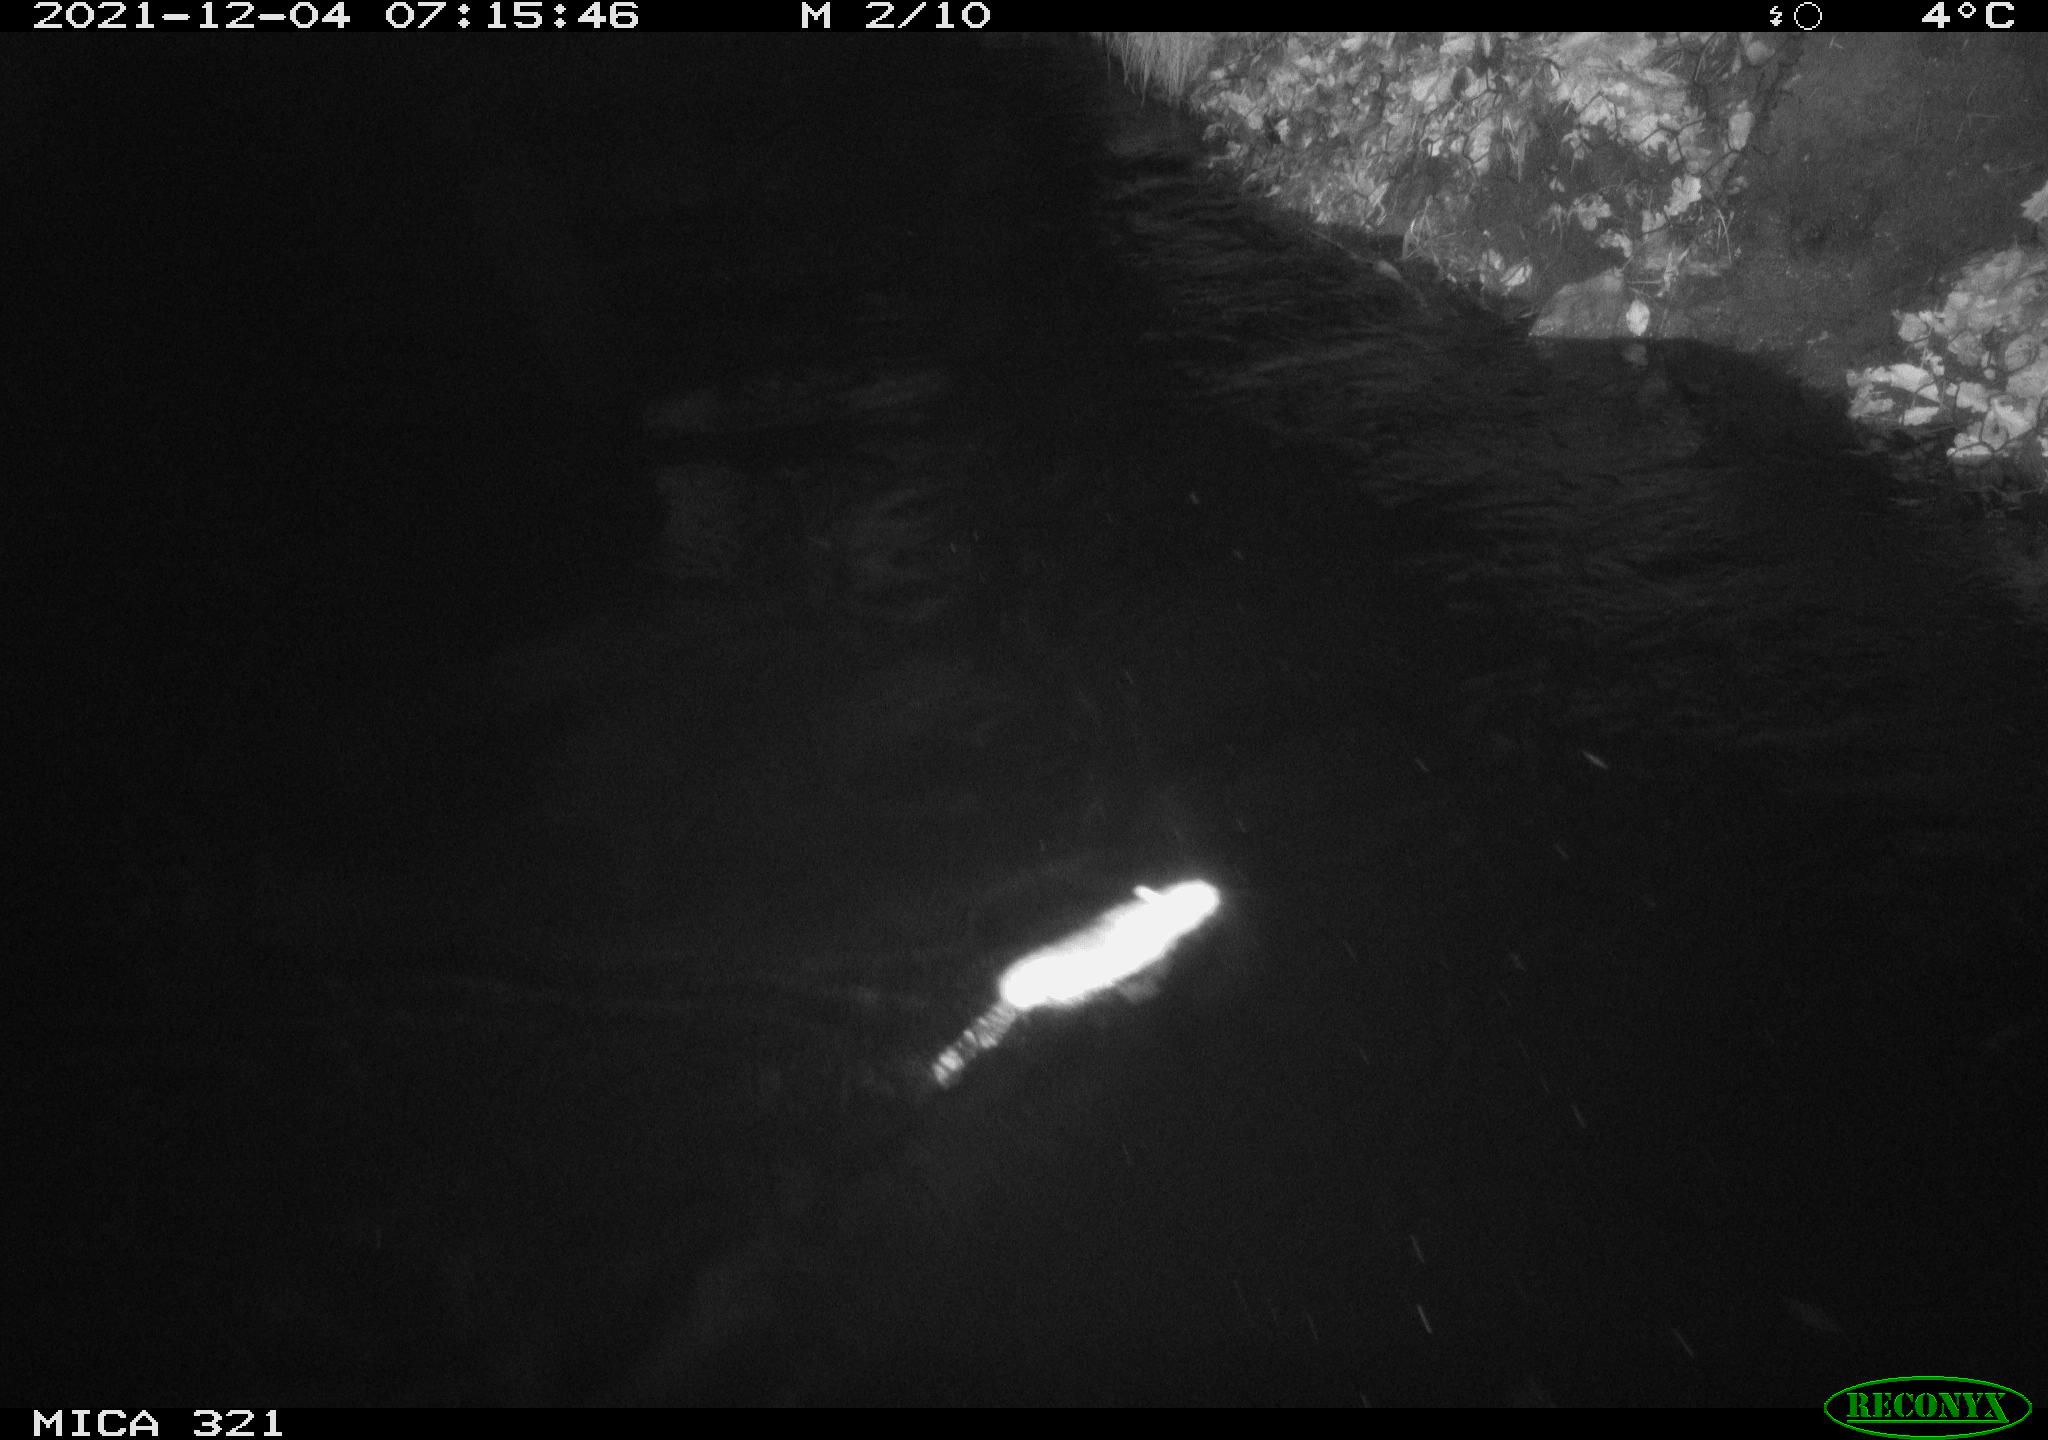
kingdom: Animalia
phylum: Chordata
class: Mammalia
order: Rodentia
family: Muridae
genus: Rattus
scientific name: Rattus norvegicus
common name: Brown rat
